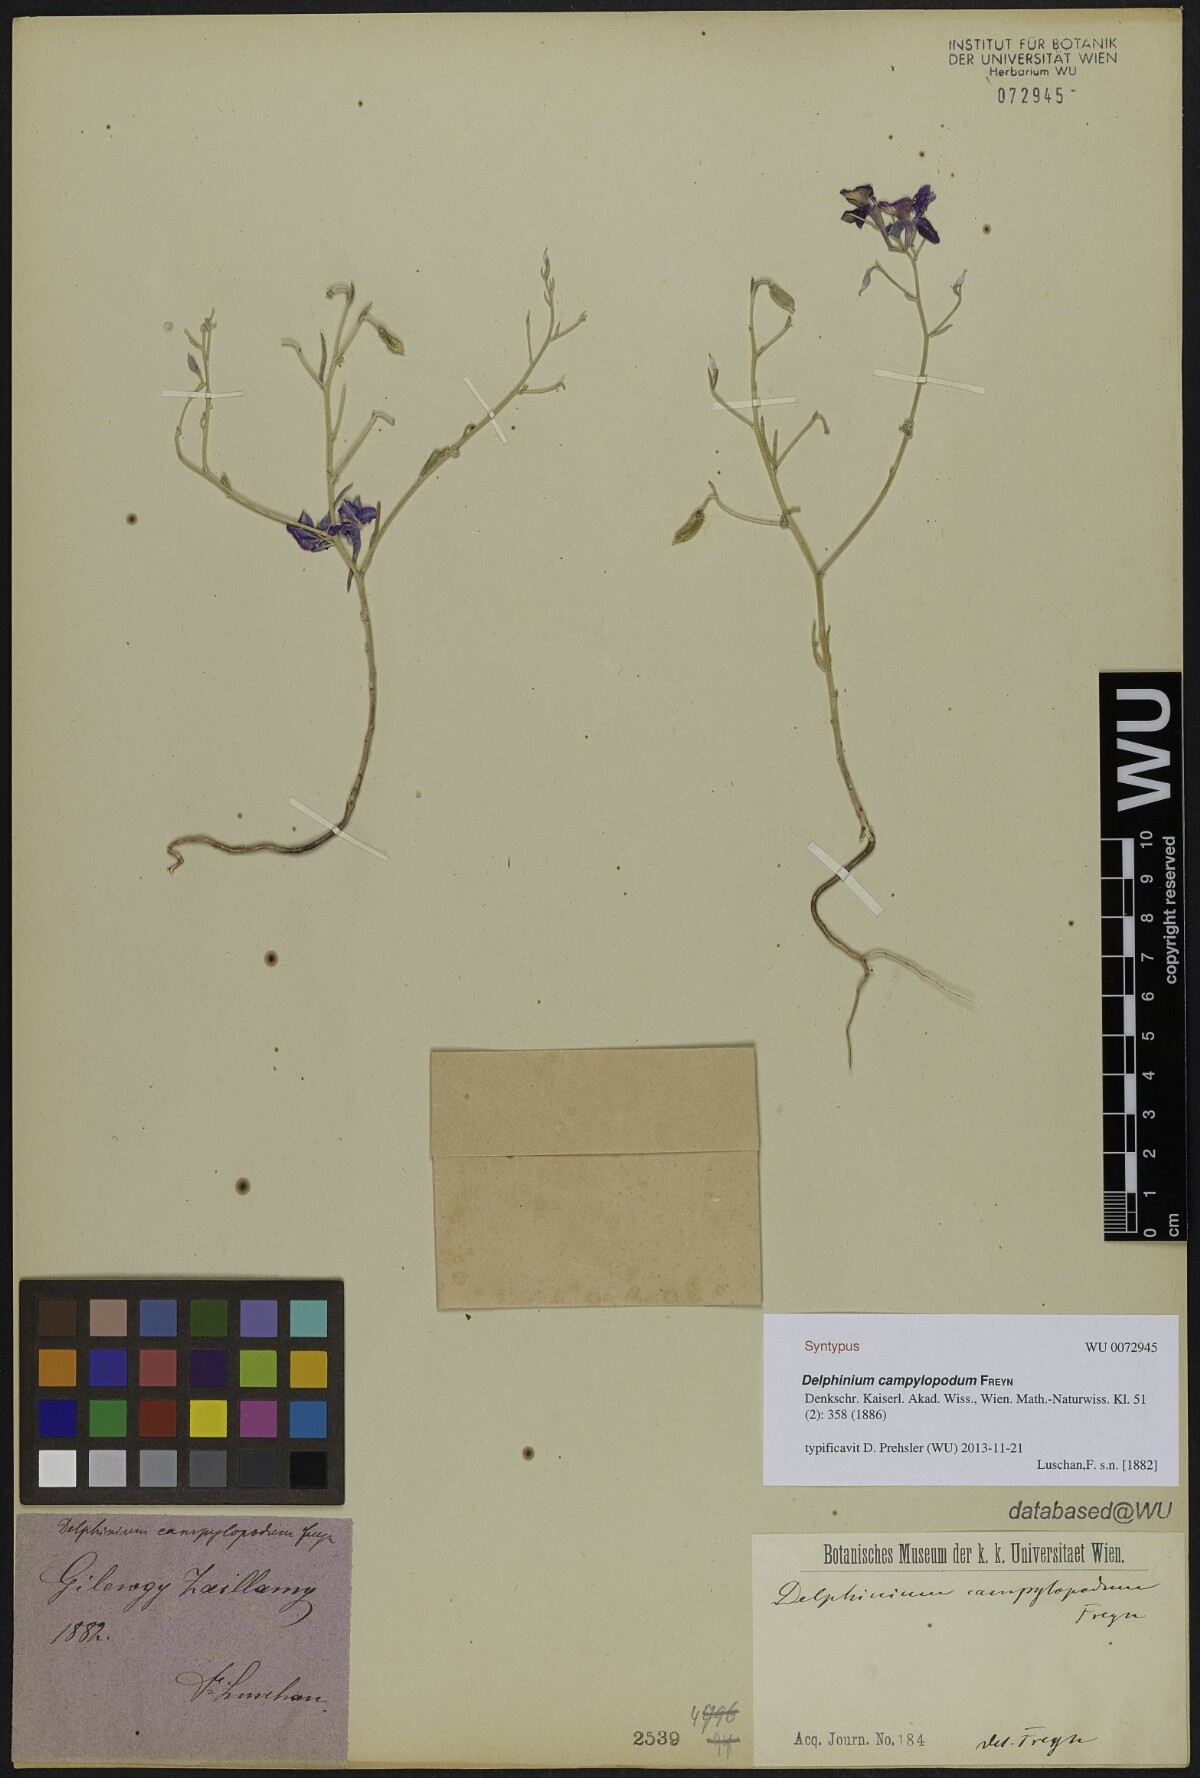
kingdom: Plantae
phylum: Tracheophyta
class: Magnoliopsida
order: Ranunculales
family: Ranunculaceae
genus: Delphinium
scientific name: Delphinium hellesponticum
